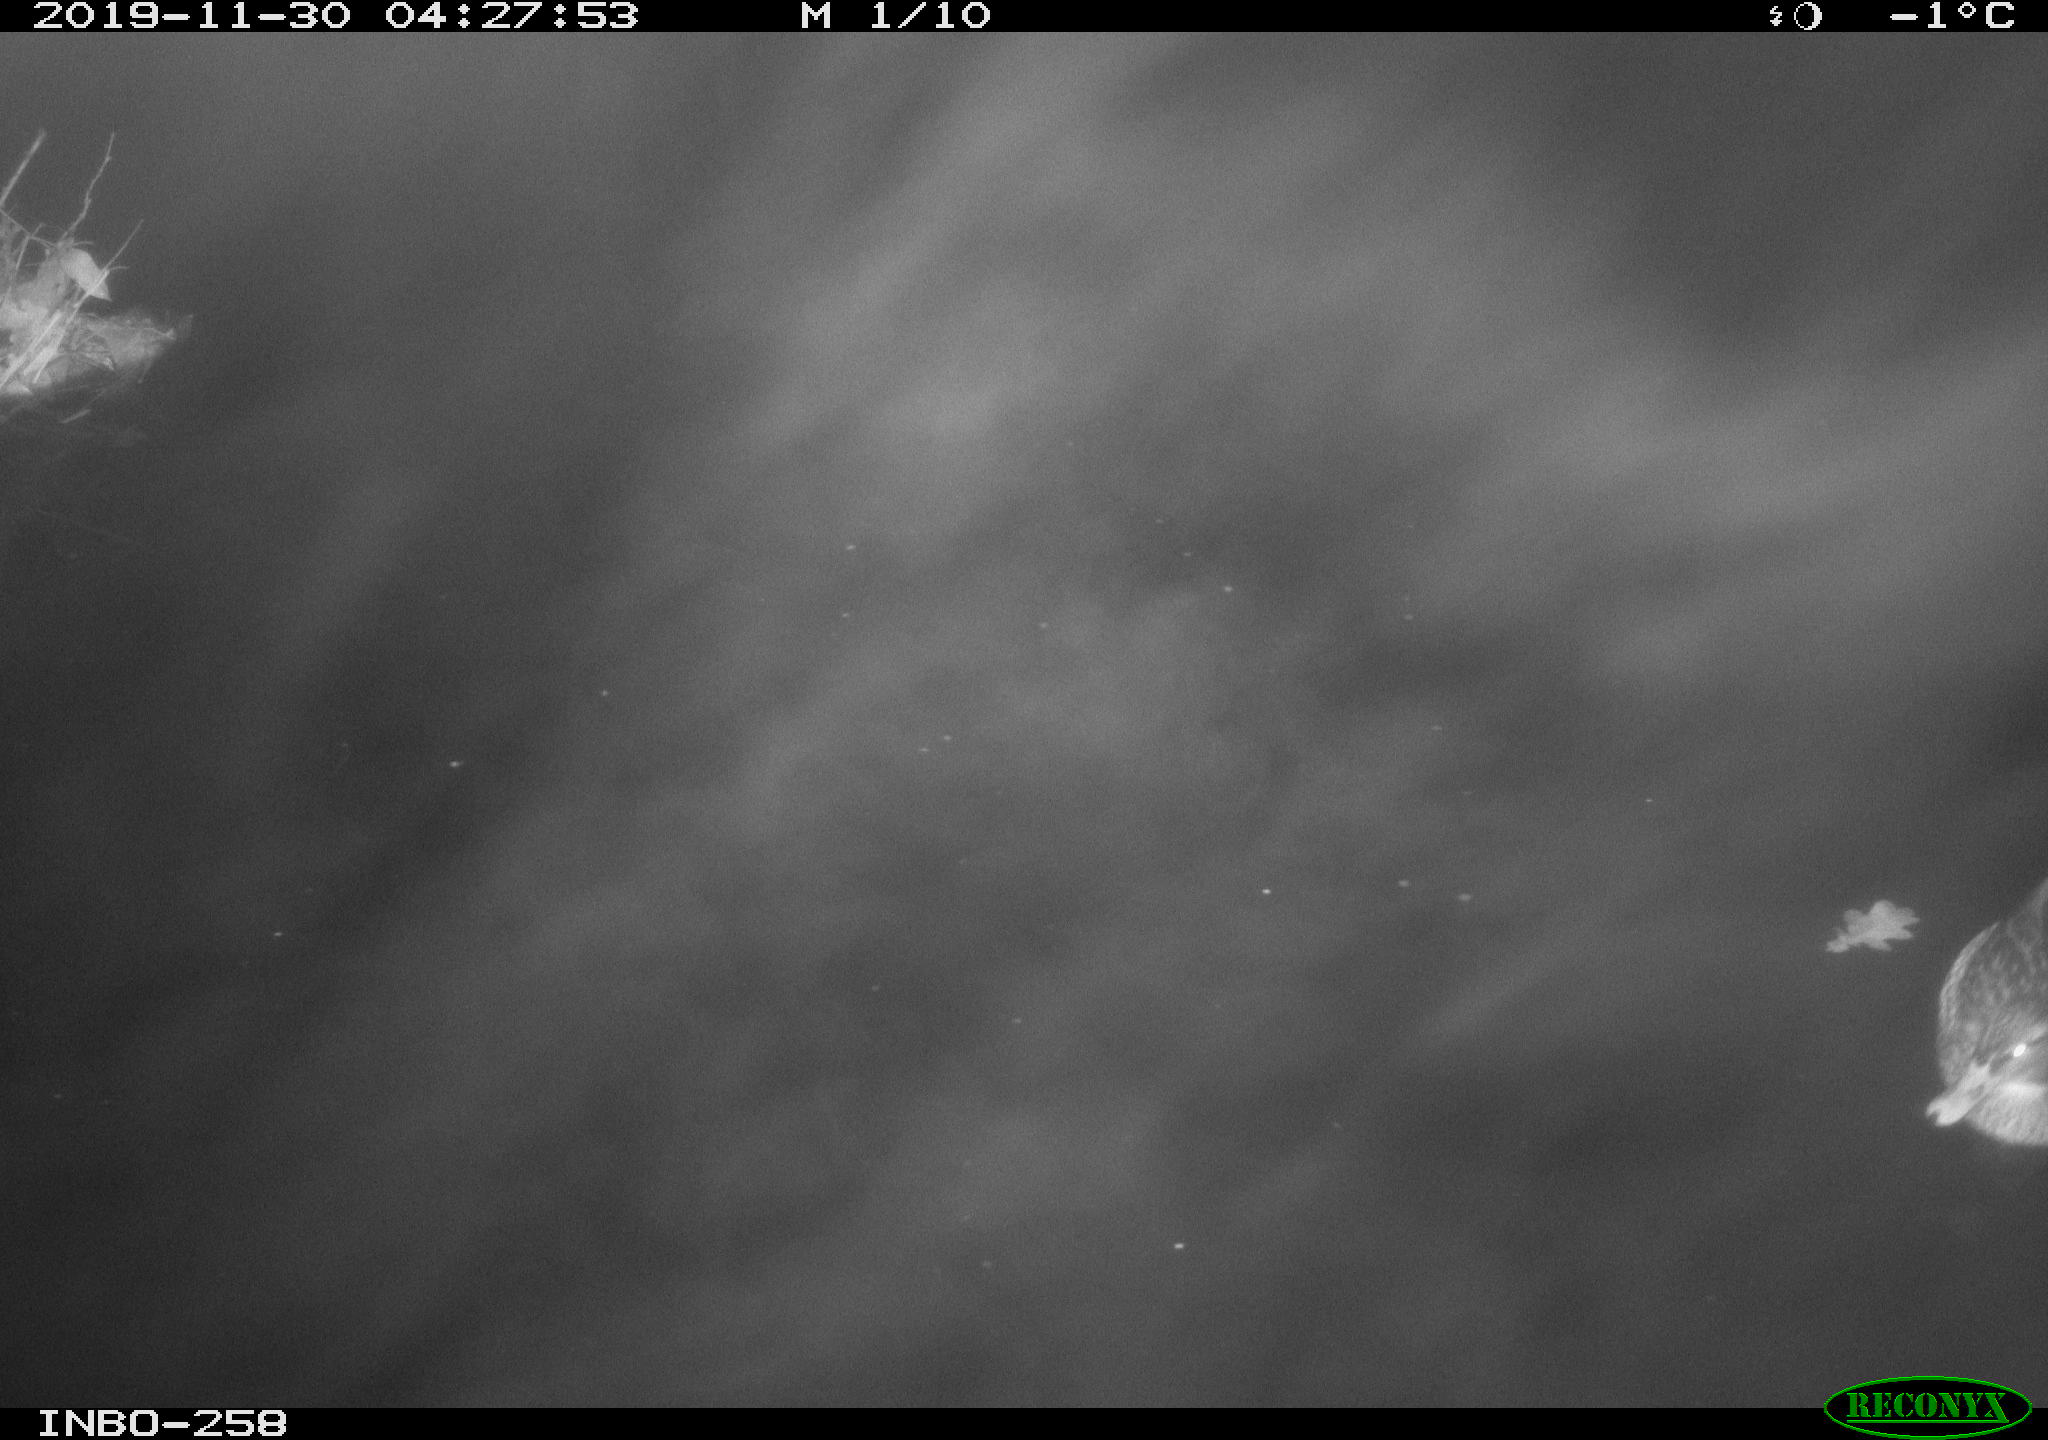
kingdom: Animalia
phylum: Chordata
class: Aves
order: Anseriformes
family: Anatidae
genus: Anas
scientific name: Anas platyrhynchos
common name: Mallard
